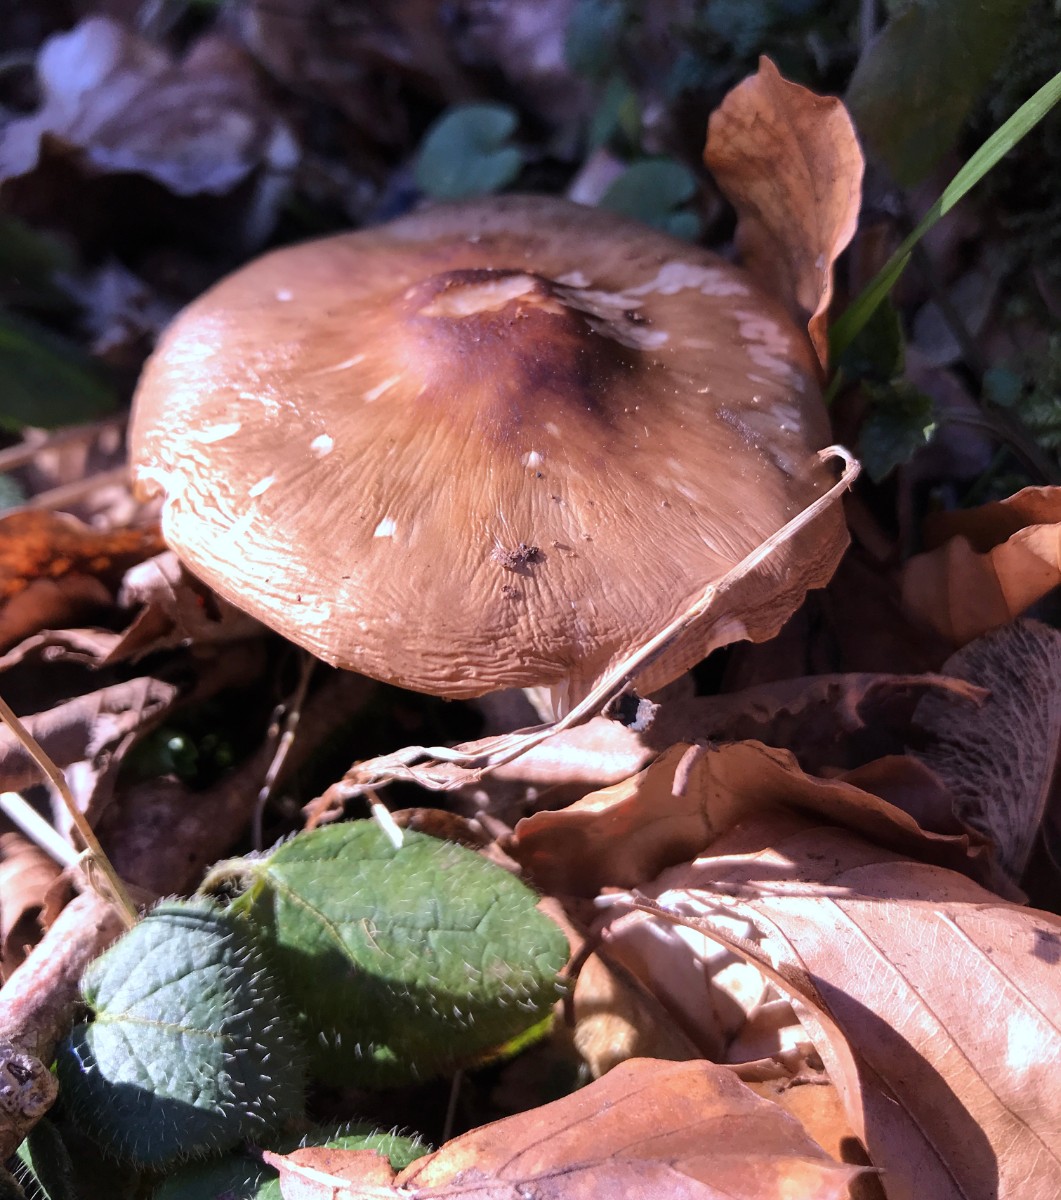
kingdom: Fungi
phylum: Basidiomycota
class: Agaricomycetes
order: Agaricales
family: Pluteaceae
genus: Pluteus
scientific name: Pluteus cervinus
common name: sodfarvet skærmhat
